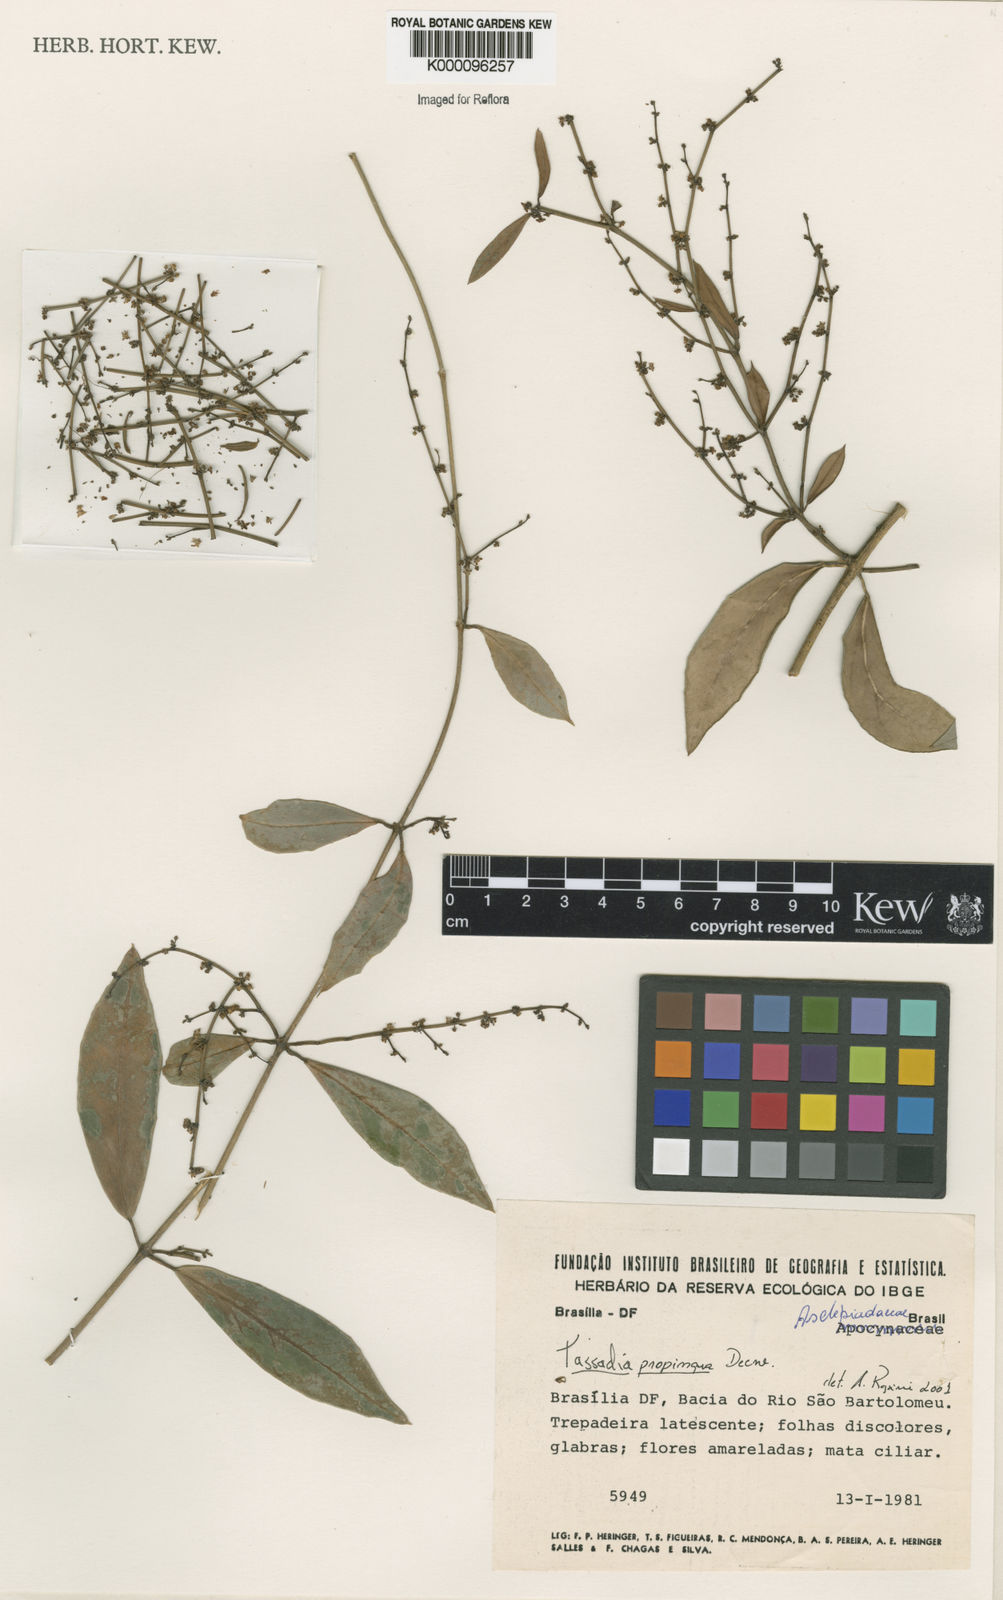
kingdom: Plantae
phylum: Tracheophyta
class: Magnoliopsida
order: Gentianales
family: Apocynaceae
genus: Tassadia
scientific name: Tassadia propinqua
